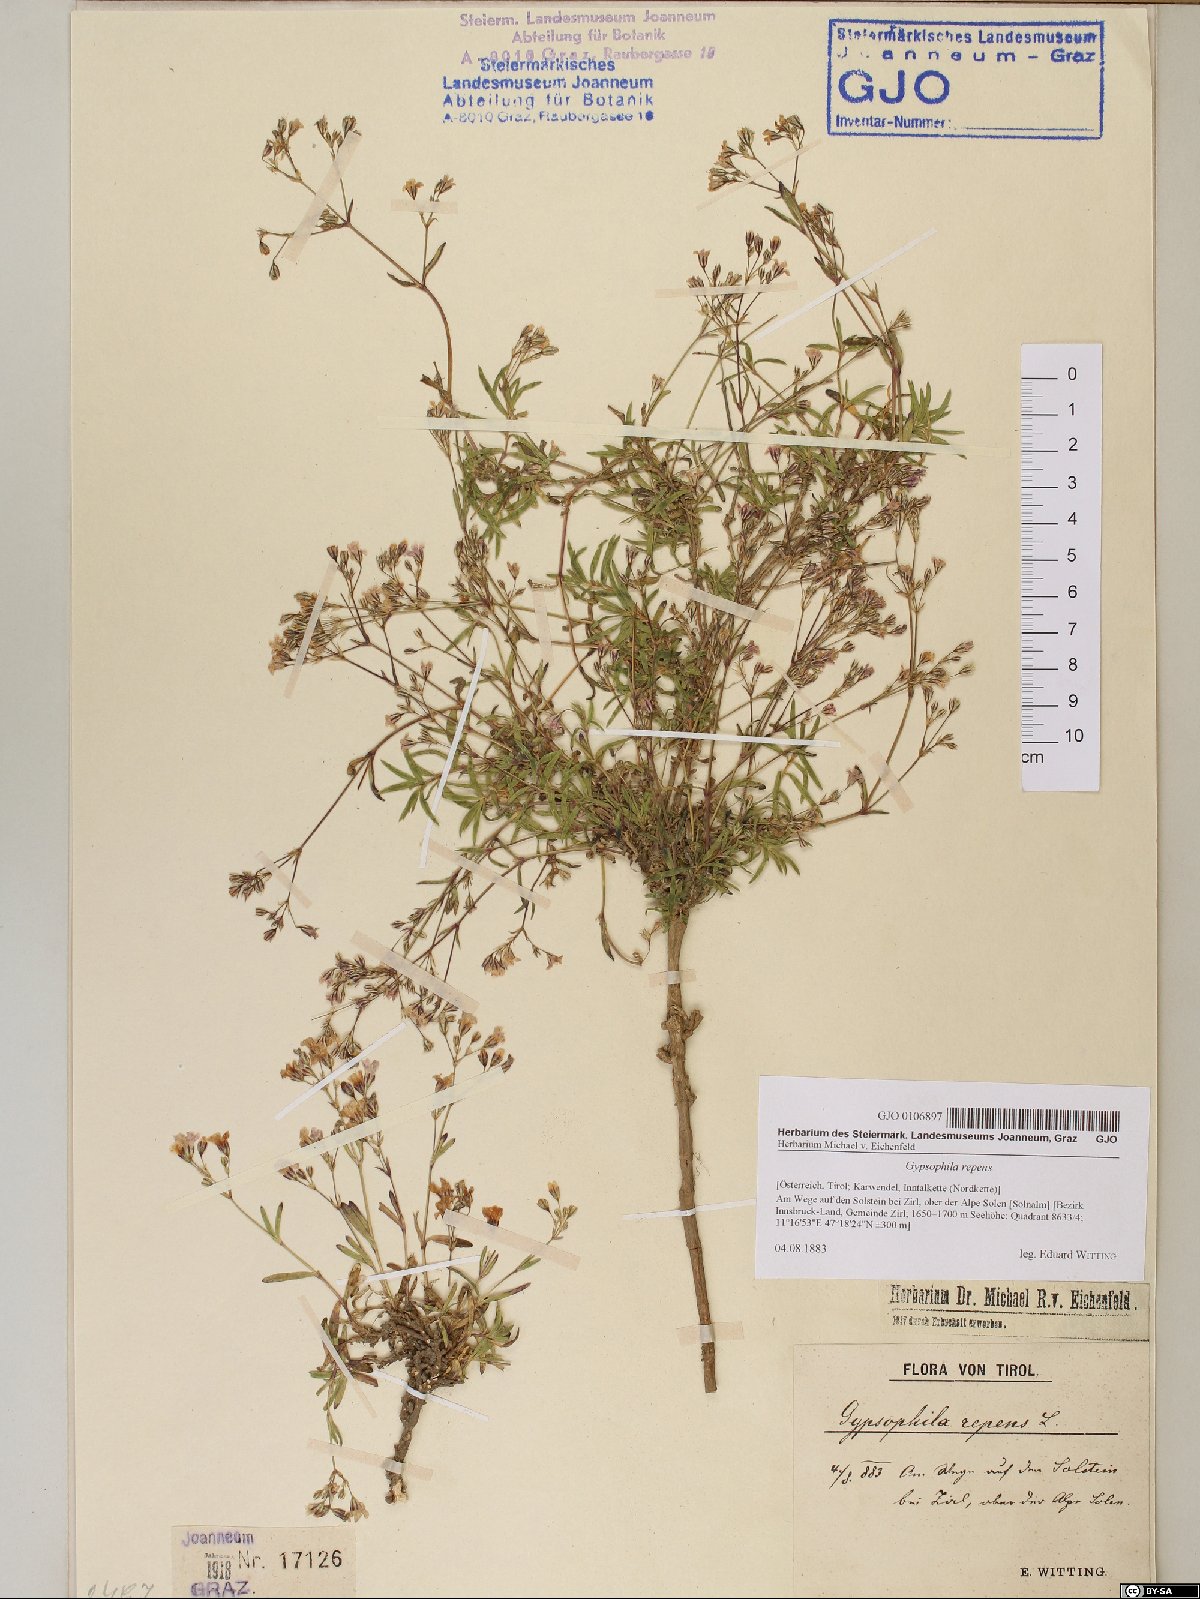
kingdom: Plantae
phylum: Tracheophyta
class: Magnoliopsida
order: Caryophyllales
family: Caryophyllaceae
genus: Gypsophila
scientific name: Gypsophila repens
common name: Creeping baby's-breath
